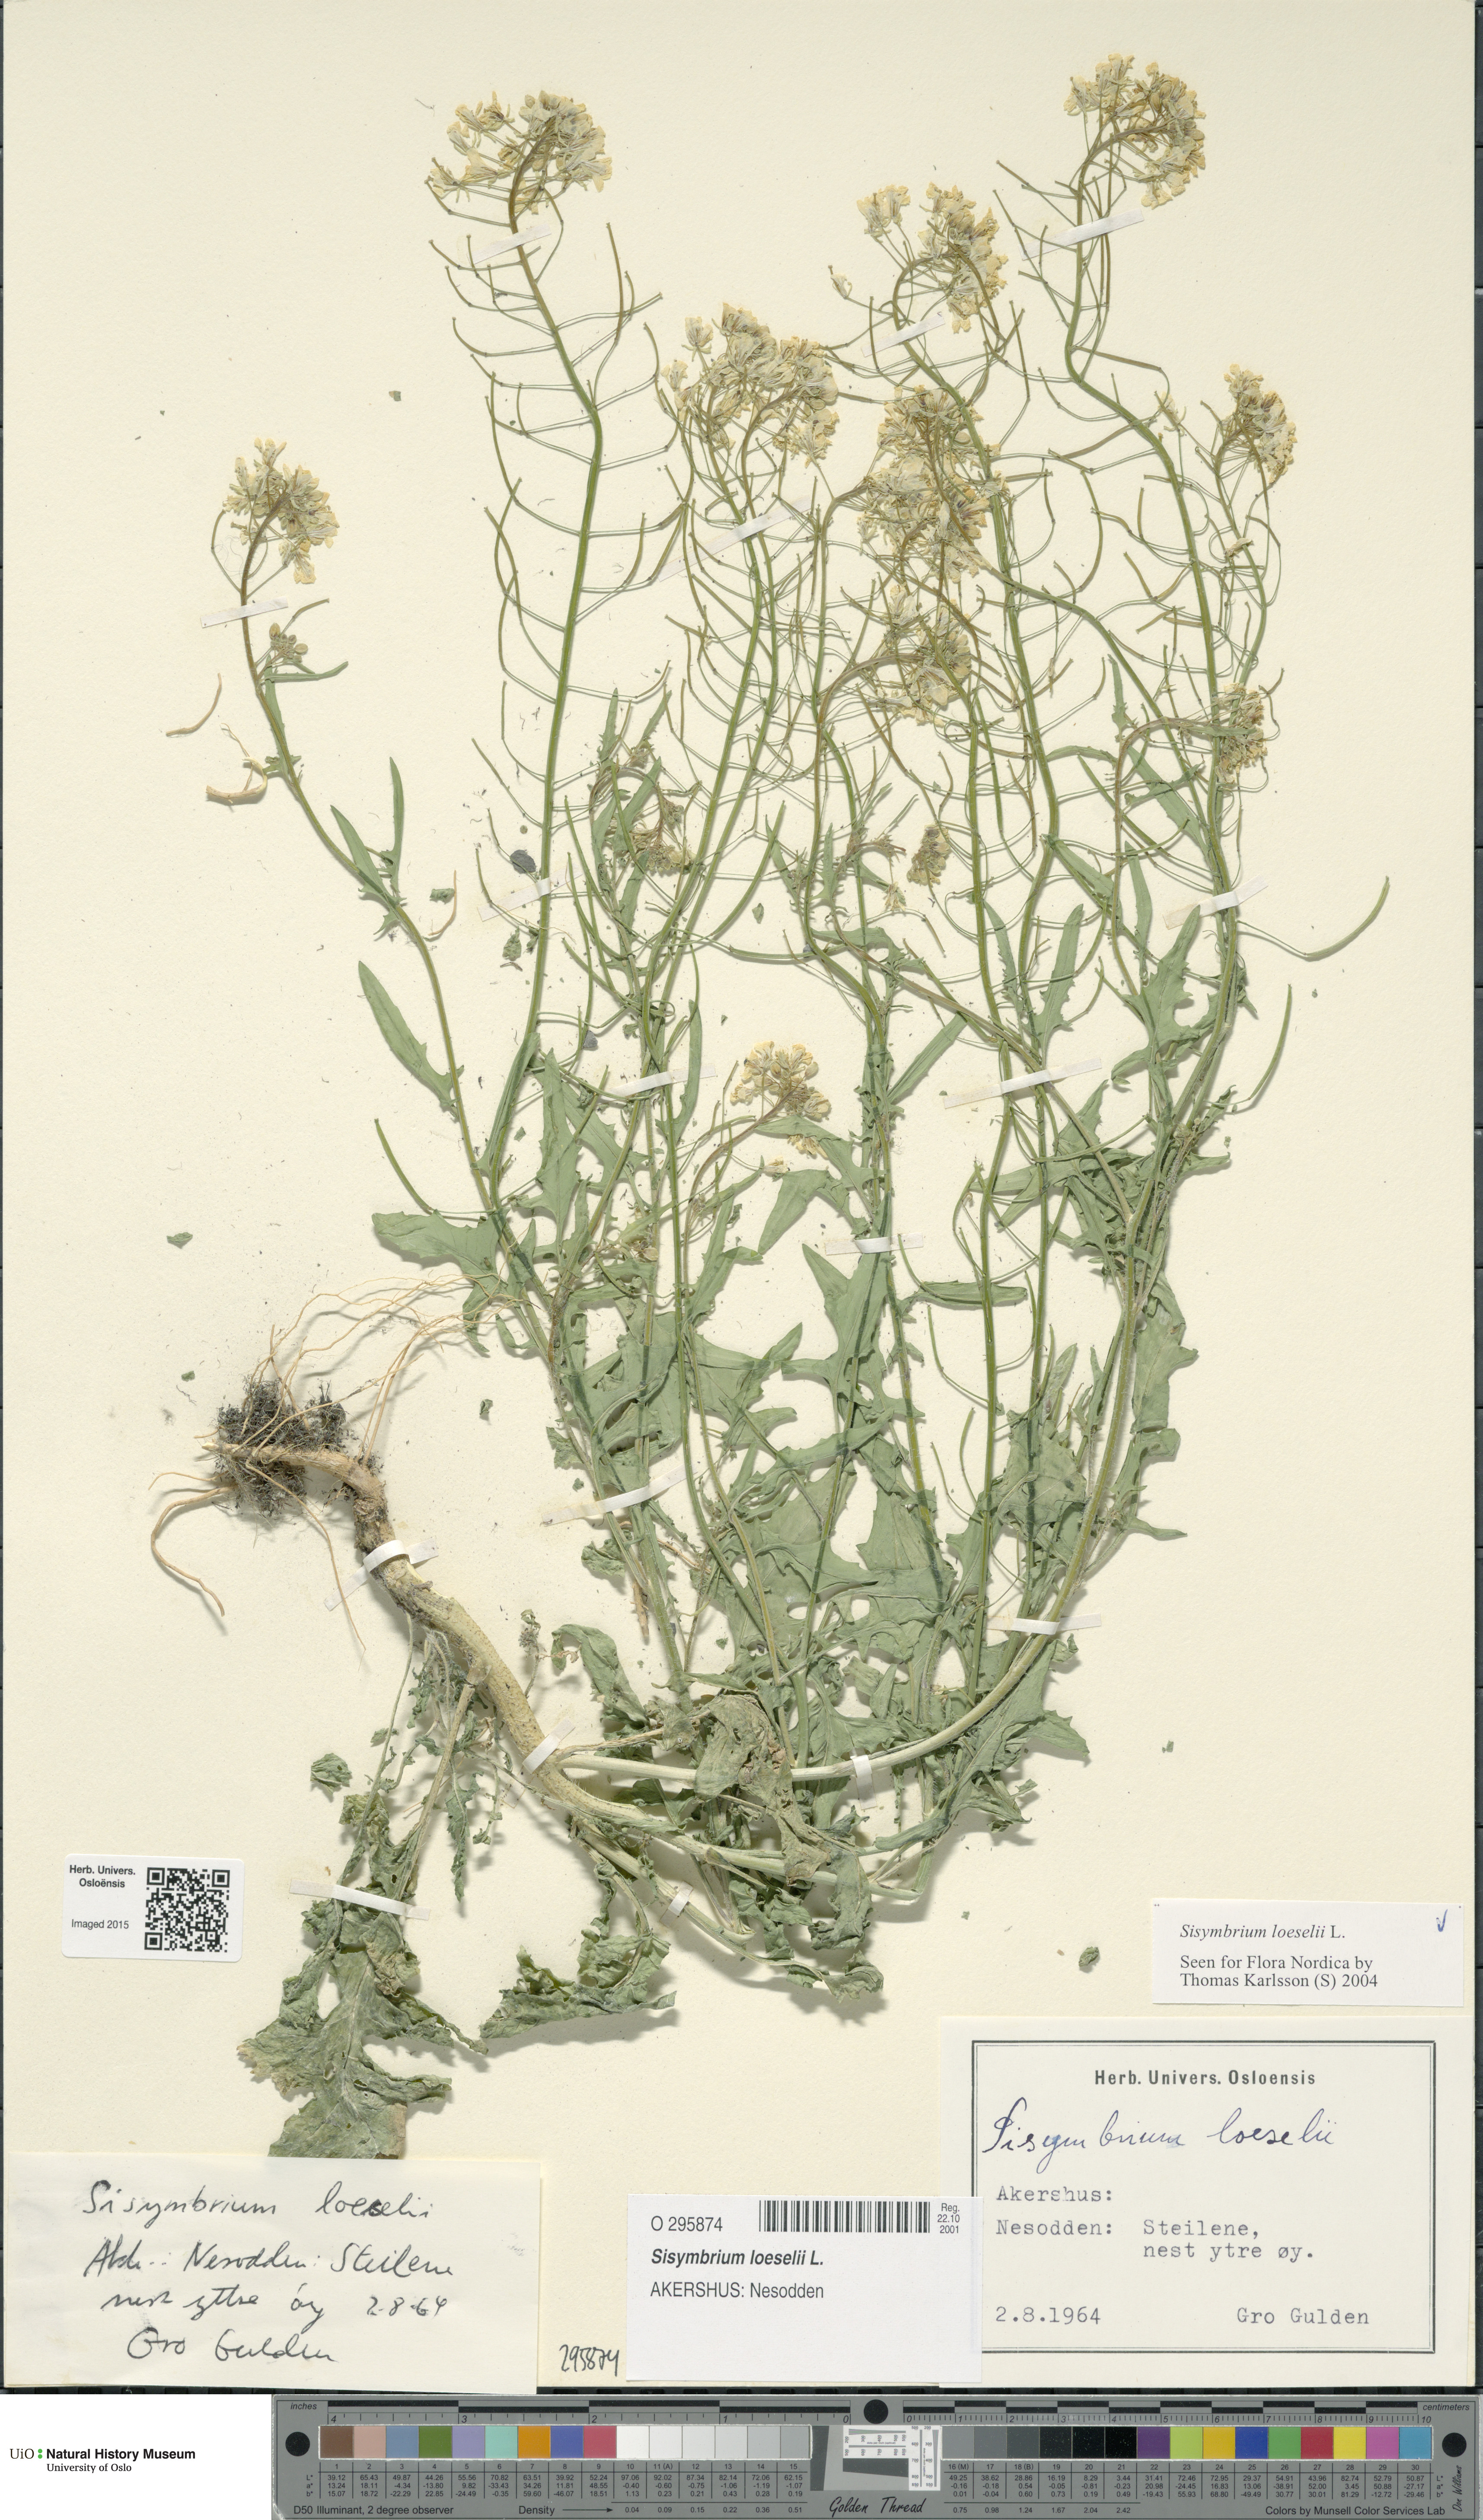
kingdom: Plantae
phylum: Tracheophyta
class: Magnoliopsida
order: Brassicales
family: Brassicaceae
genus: Sisymbrium
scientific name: Sisymbrium loeselii
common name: False london-rocket
